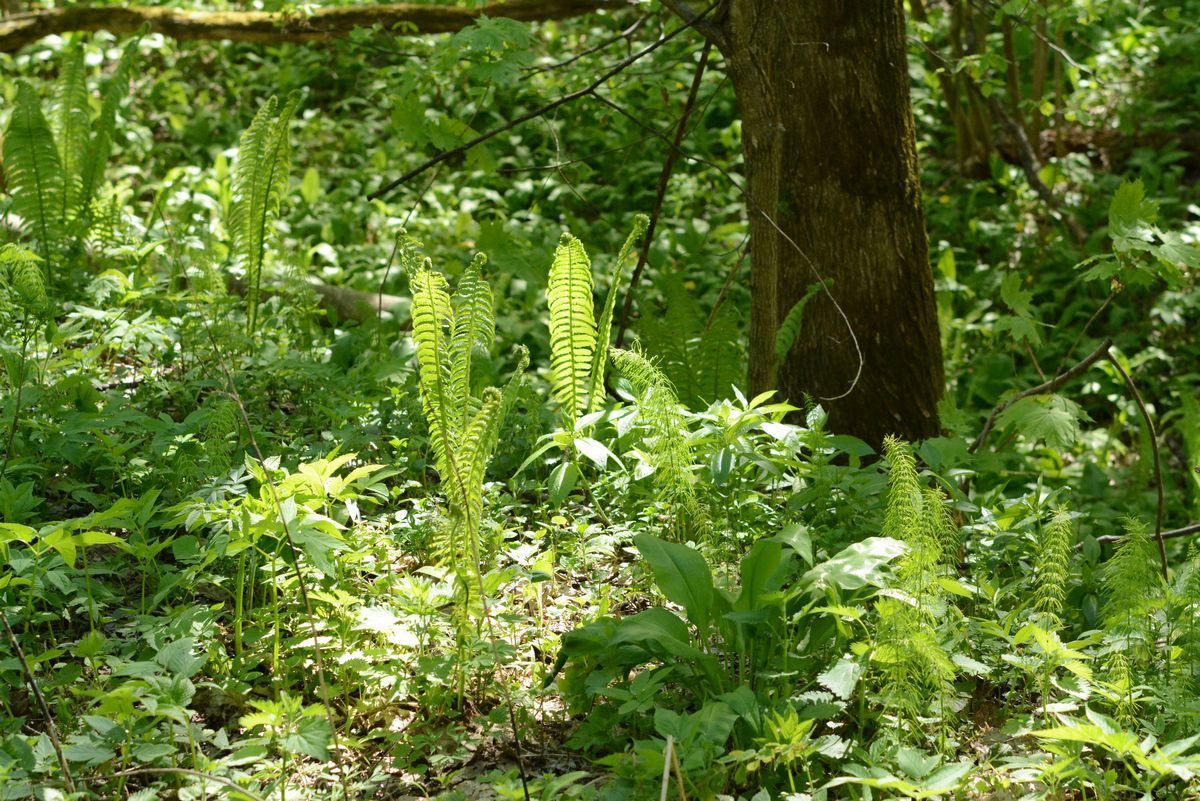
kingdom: Plantae
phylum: Tracheophyta
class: Polypodiopsida
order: Polypodiales
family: Onocleaceae
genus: Matteuccia
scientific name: Matteuccia struthiopteris
